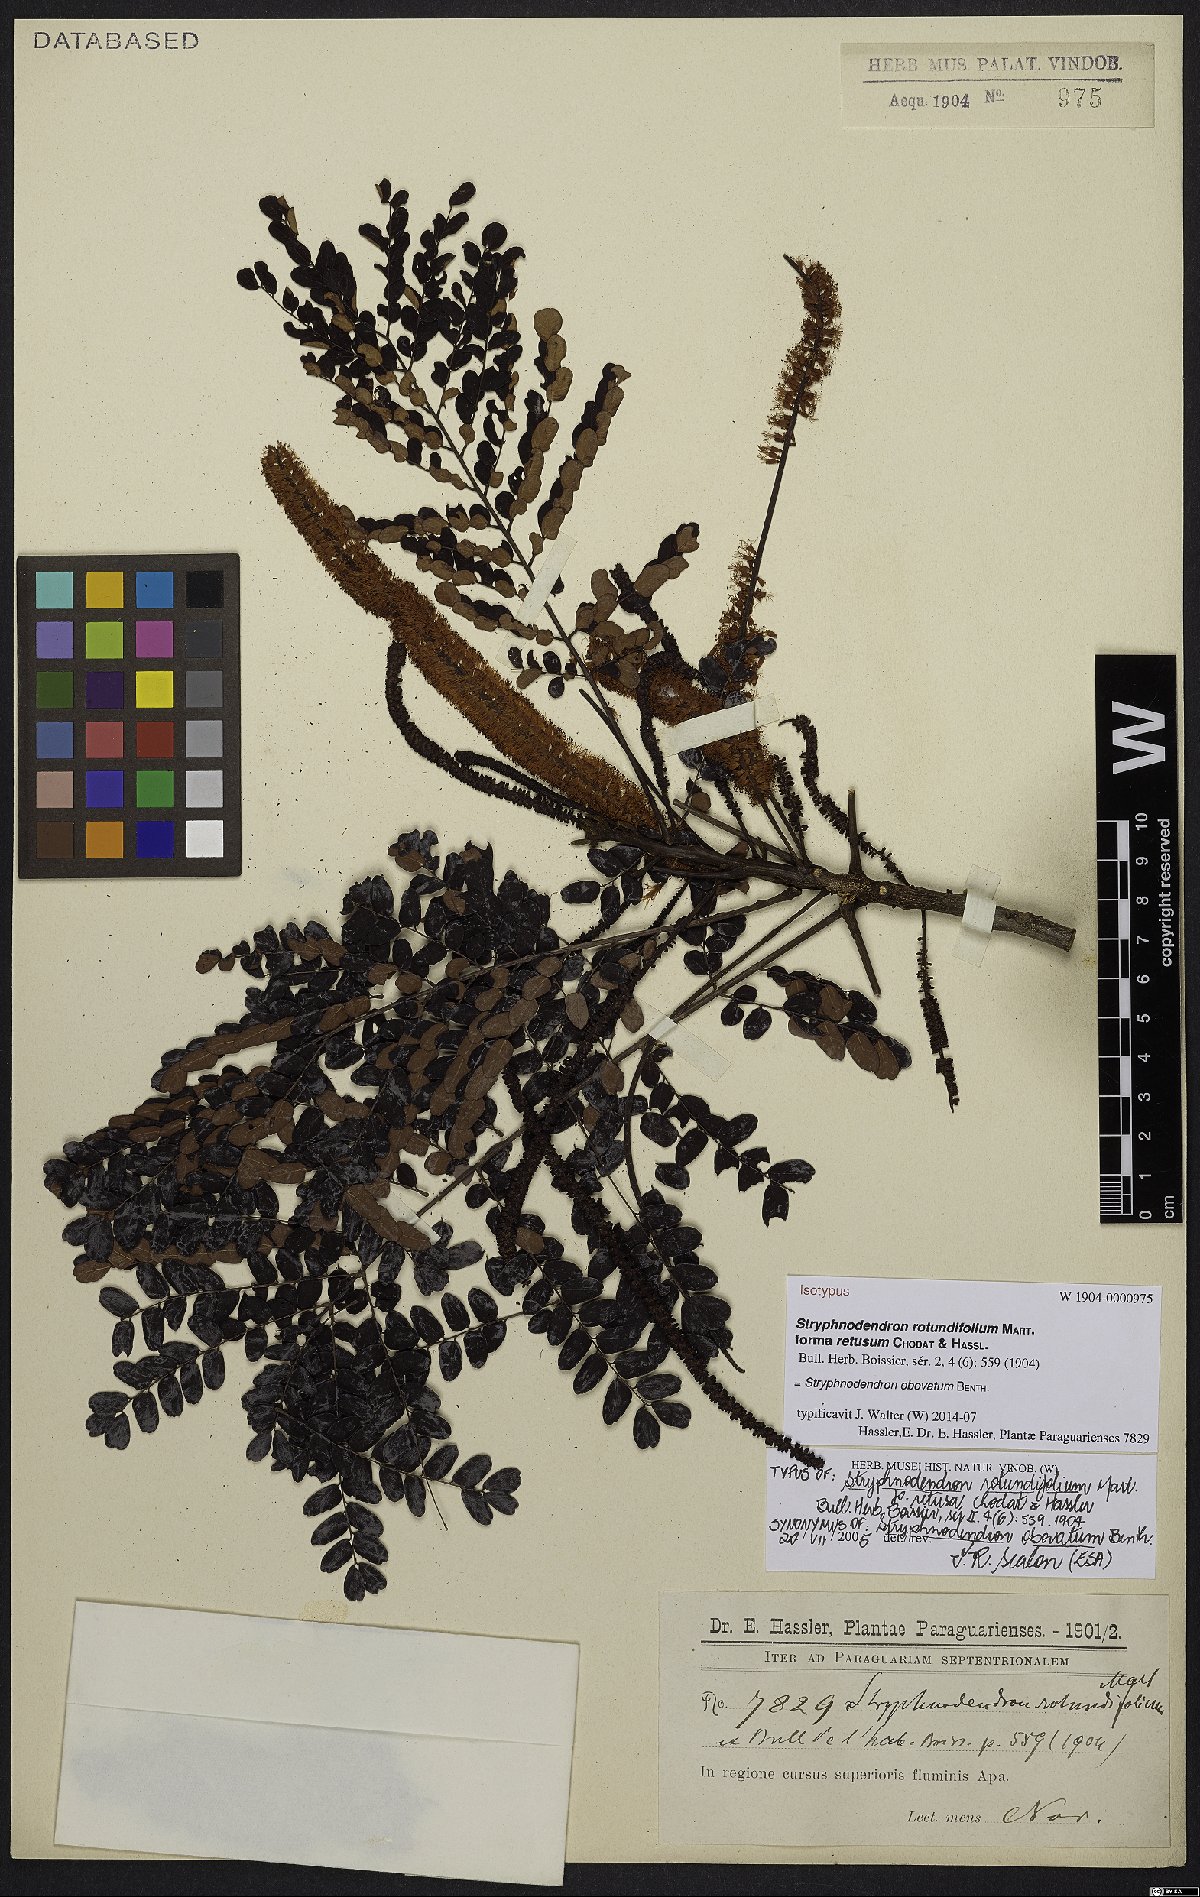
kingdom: Plantae
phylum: Tracheophyta
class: Magnoliopsida
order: Fabales
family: Fabaceae
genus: Stryphnodendron
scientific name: Stryphnodendron rotundifolium
